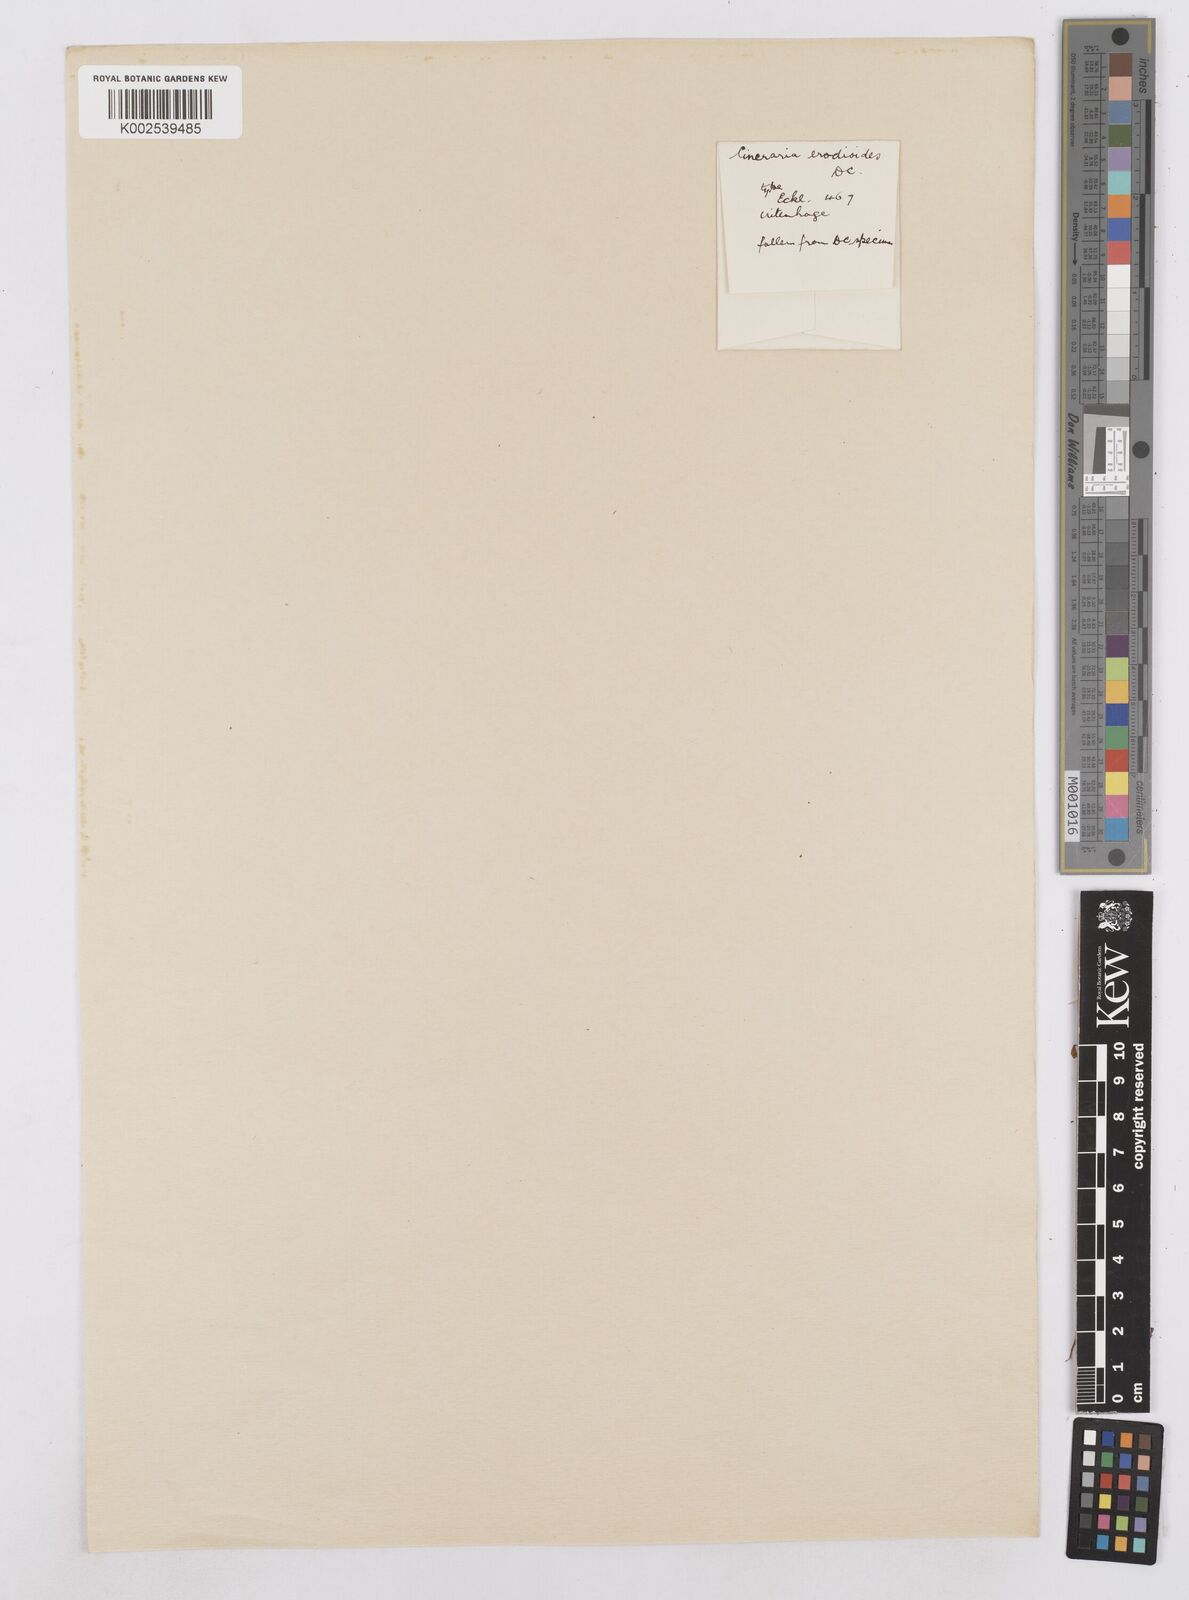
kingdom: Plantae
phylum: Tracheophyta
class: Magnoliopsida
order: Asterales
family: Asteraceae
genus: Cineraria
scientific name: Cineraria geifolia
